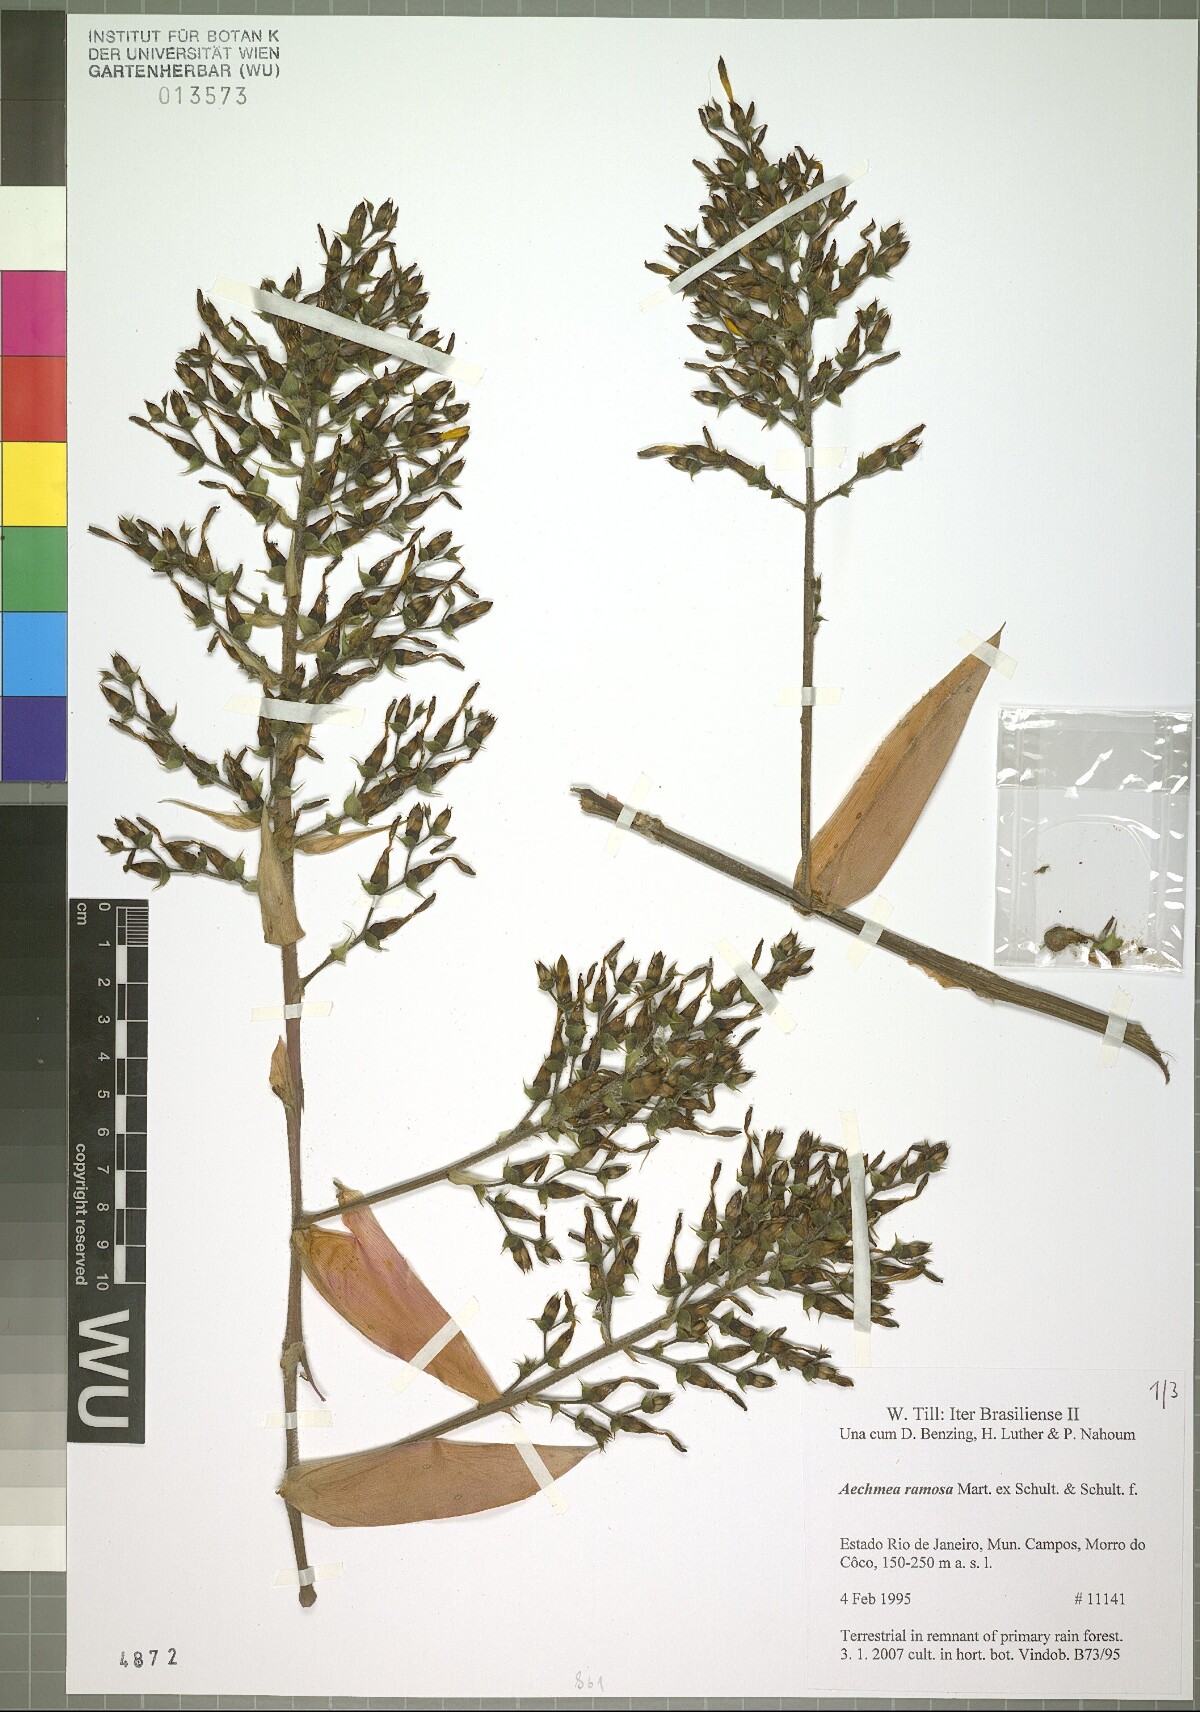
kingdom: Plantae
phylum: Tracheophyta
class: Liliopsida
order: Poales
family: Bromeliaceae
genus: Aechmea
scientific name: Aechmea ramosa
